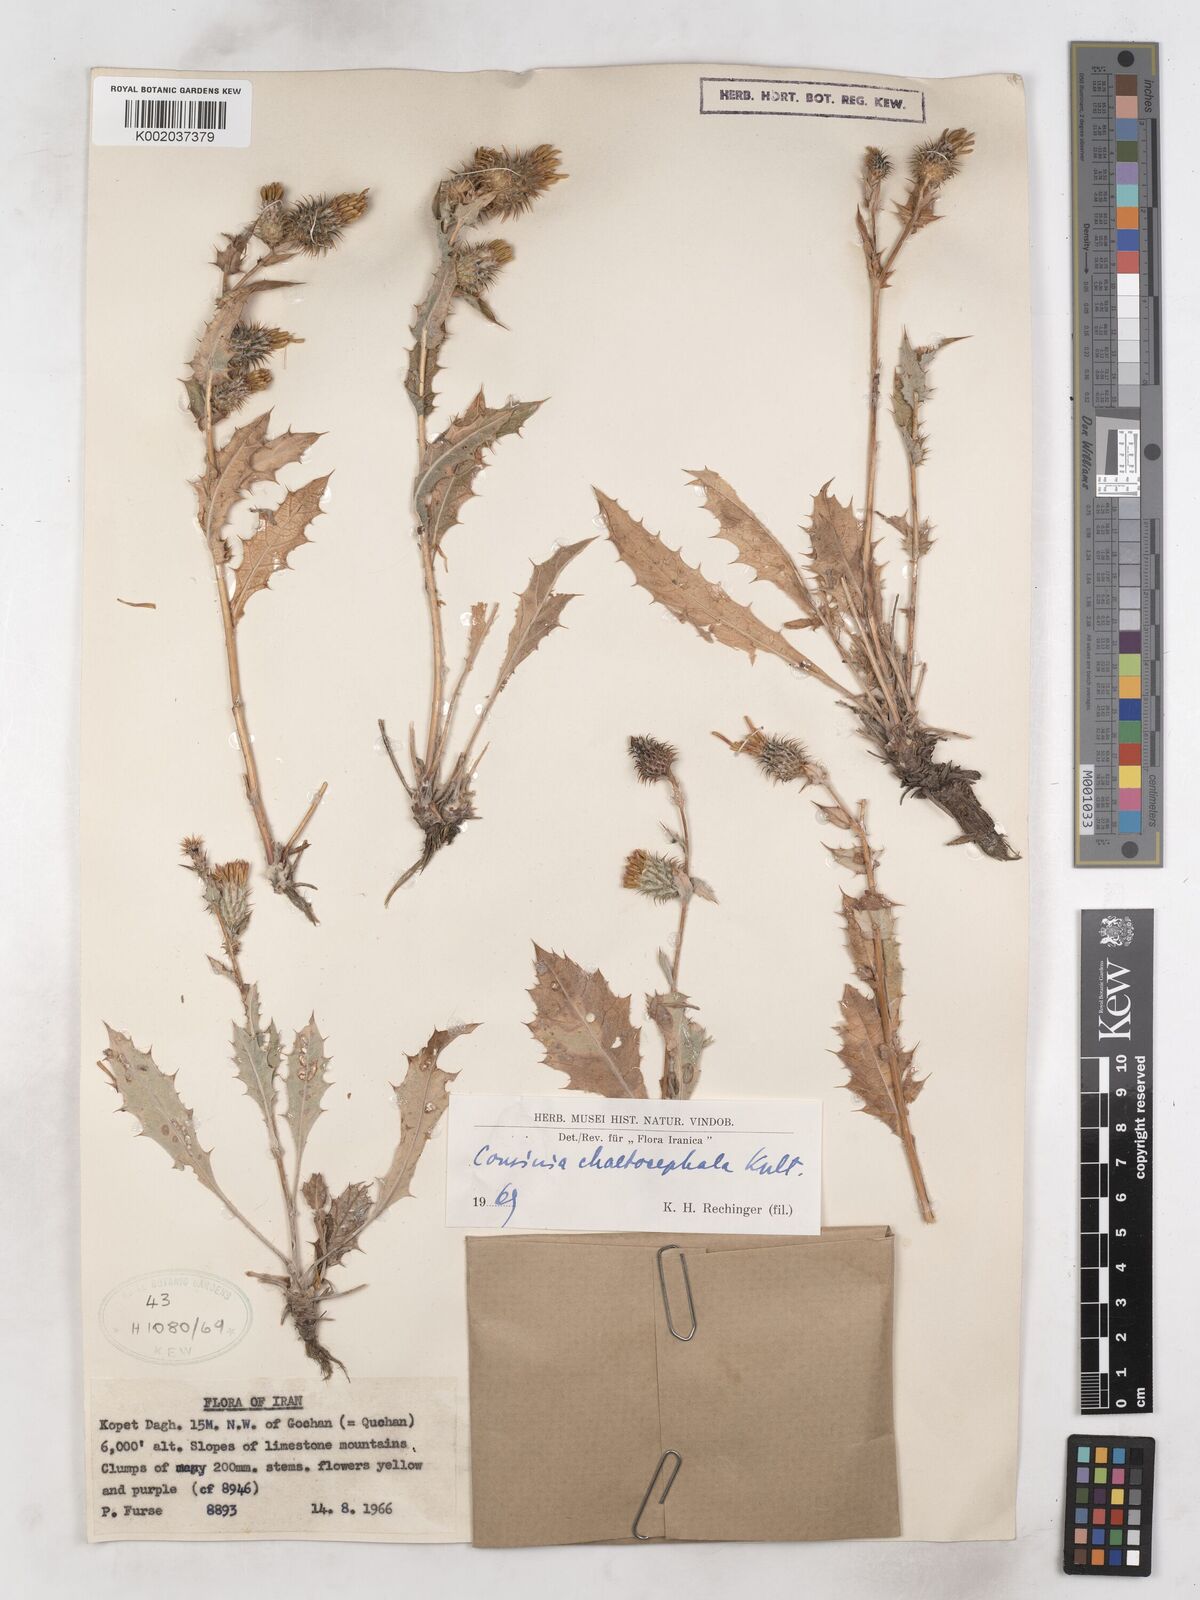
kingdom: Plantae
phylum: Tracheophyta
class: Magnoliopsida
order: Asterales
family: Asteraceae
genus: Cousinia
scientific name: Cousinia chaetocephala
